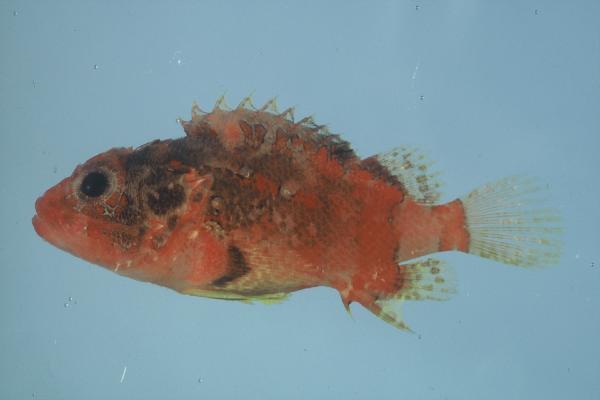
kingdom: Animalia
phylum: Chordata
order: Scorpaeniformes
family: Scorpaenidae
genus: Scorpaena
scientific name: Scorpaena scrofa
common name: Red scorpionfish
